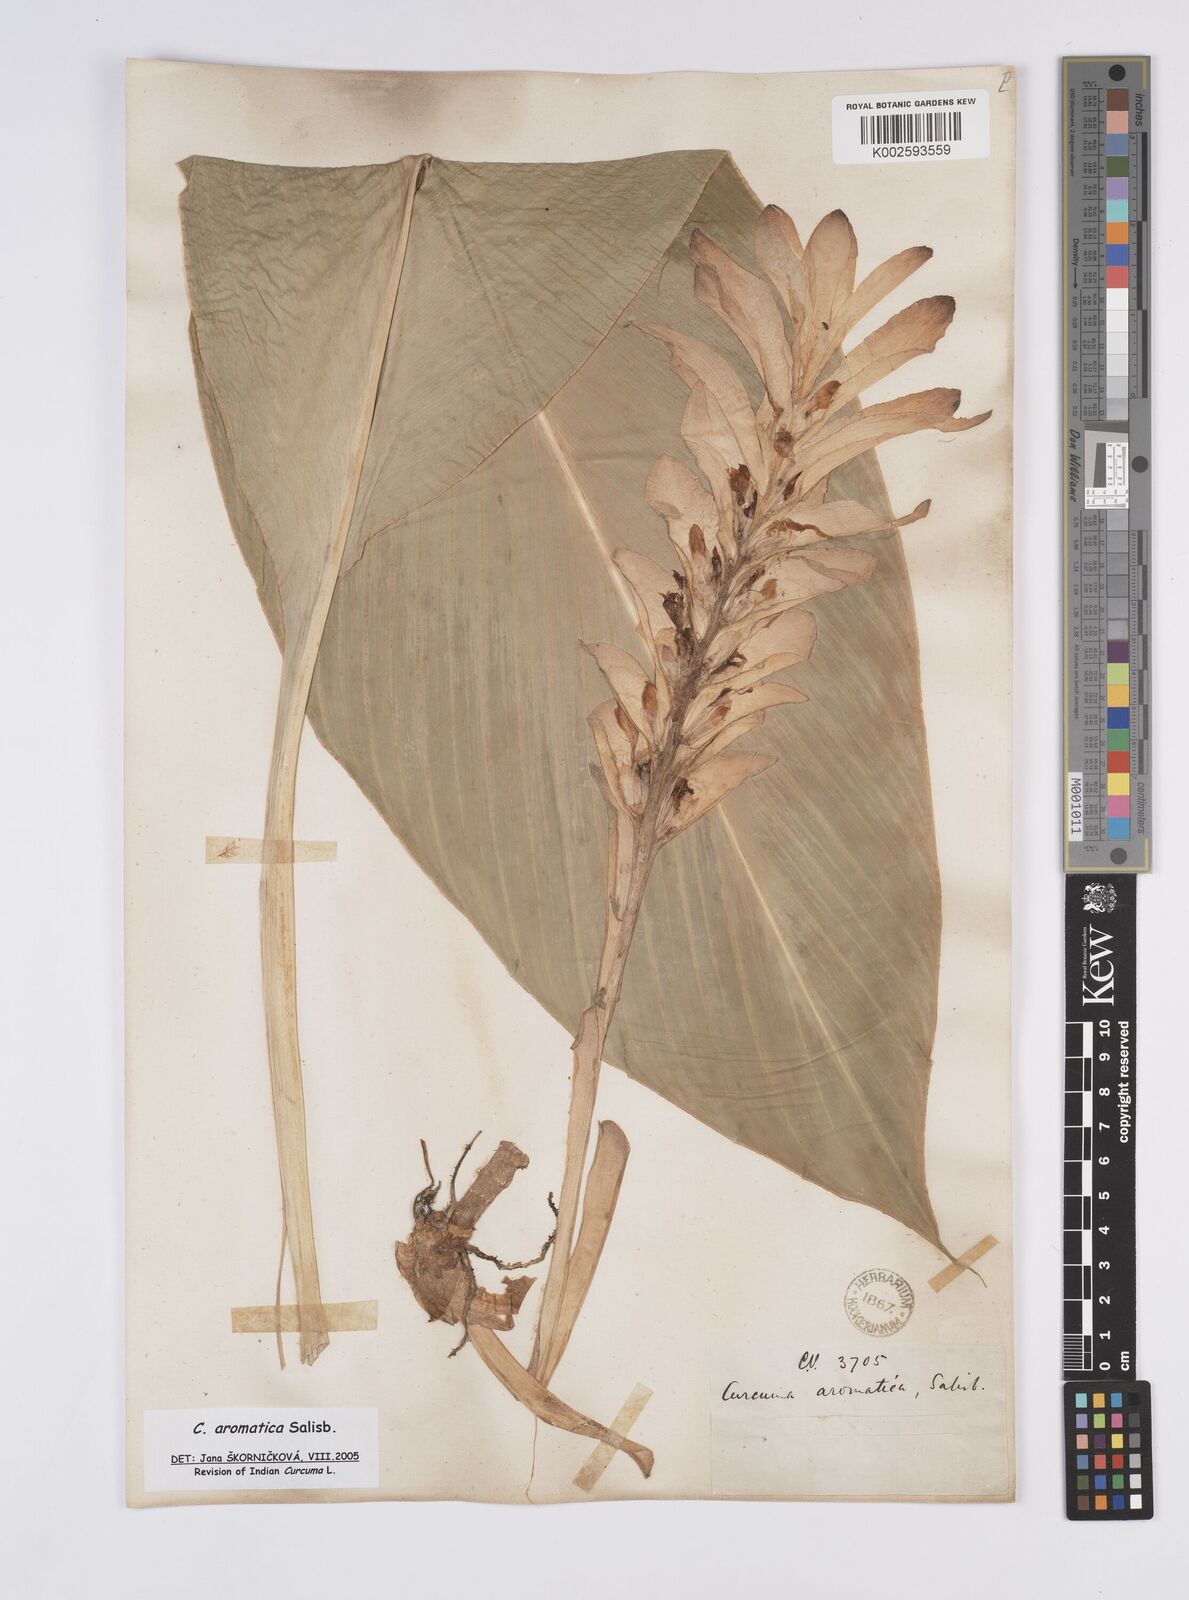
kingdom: Plantae
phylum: Tracheophyta
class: Liliopsida
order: Zingiberales
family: Zingiberaceae
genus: Curcuma
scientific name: Curcuma aromatica
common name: Wild turmeric
